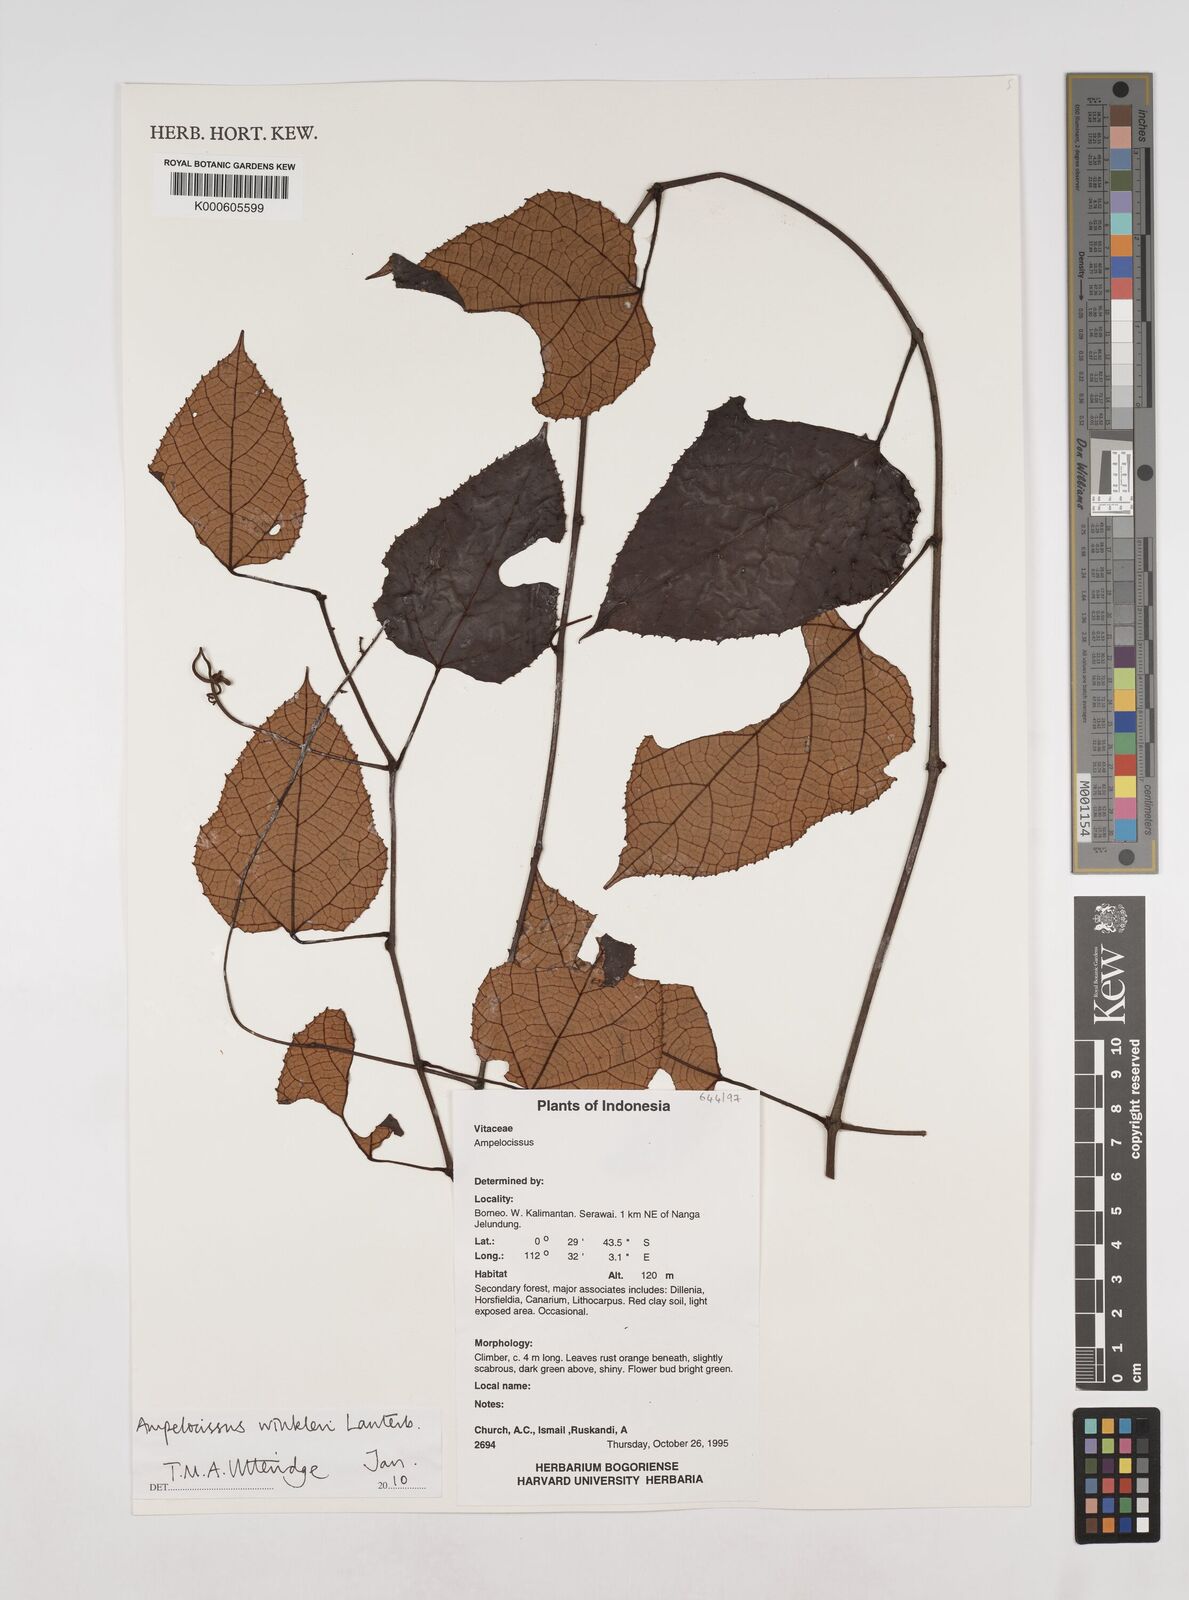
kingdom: Plantae
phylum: Tracheophyta
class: Magnoliopsida
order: Vitales
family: Vitaceae
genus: Ampelocissus
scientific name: Ampelocissus winkleri
